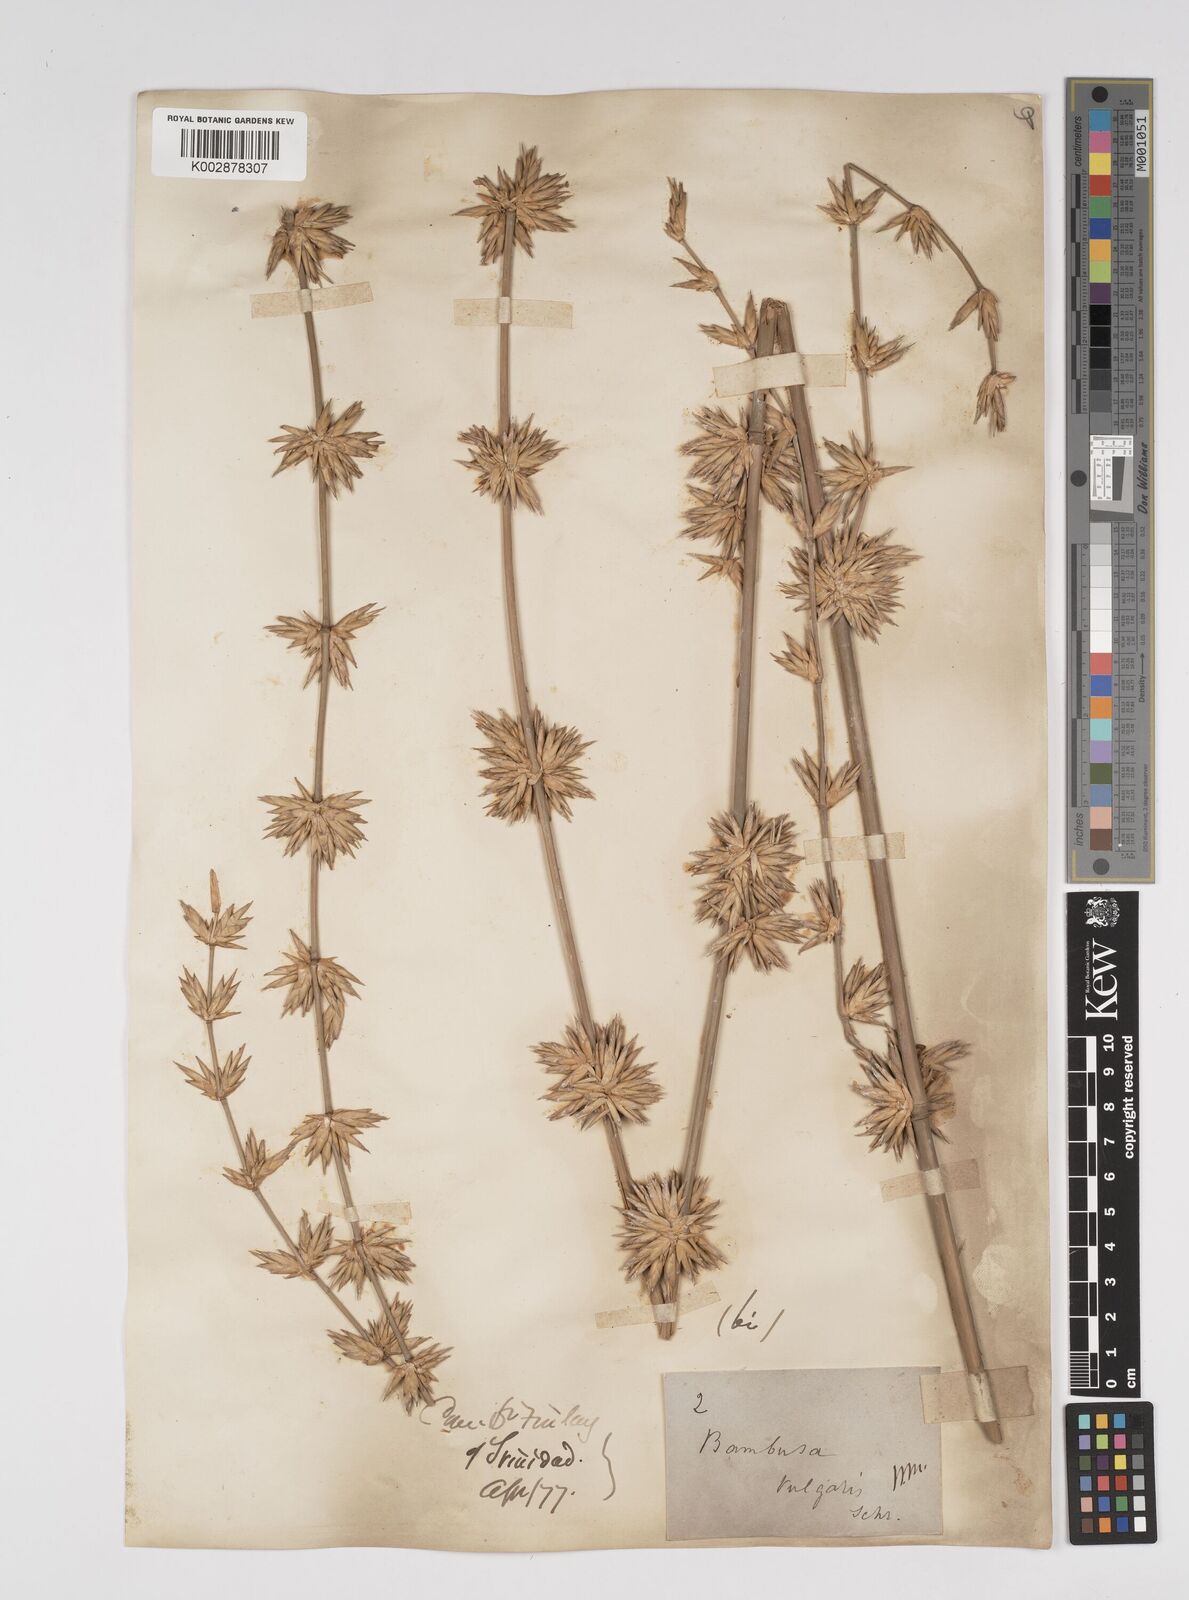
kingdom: Plantae
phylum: Tracheophyta
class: Liliopsida
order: Poales
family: Poaceae
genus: Bambusa
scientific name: Bambusa vulgaris
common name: Common bamboo
